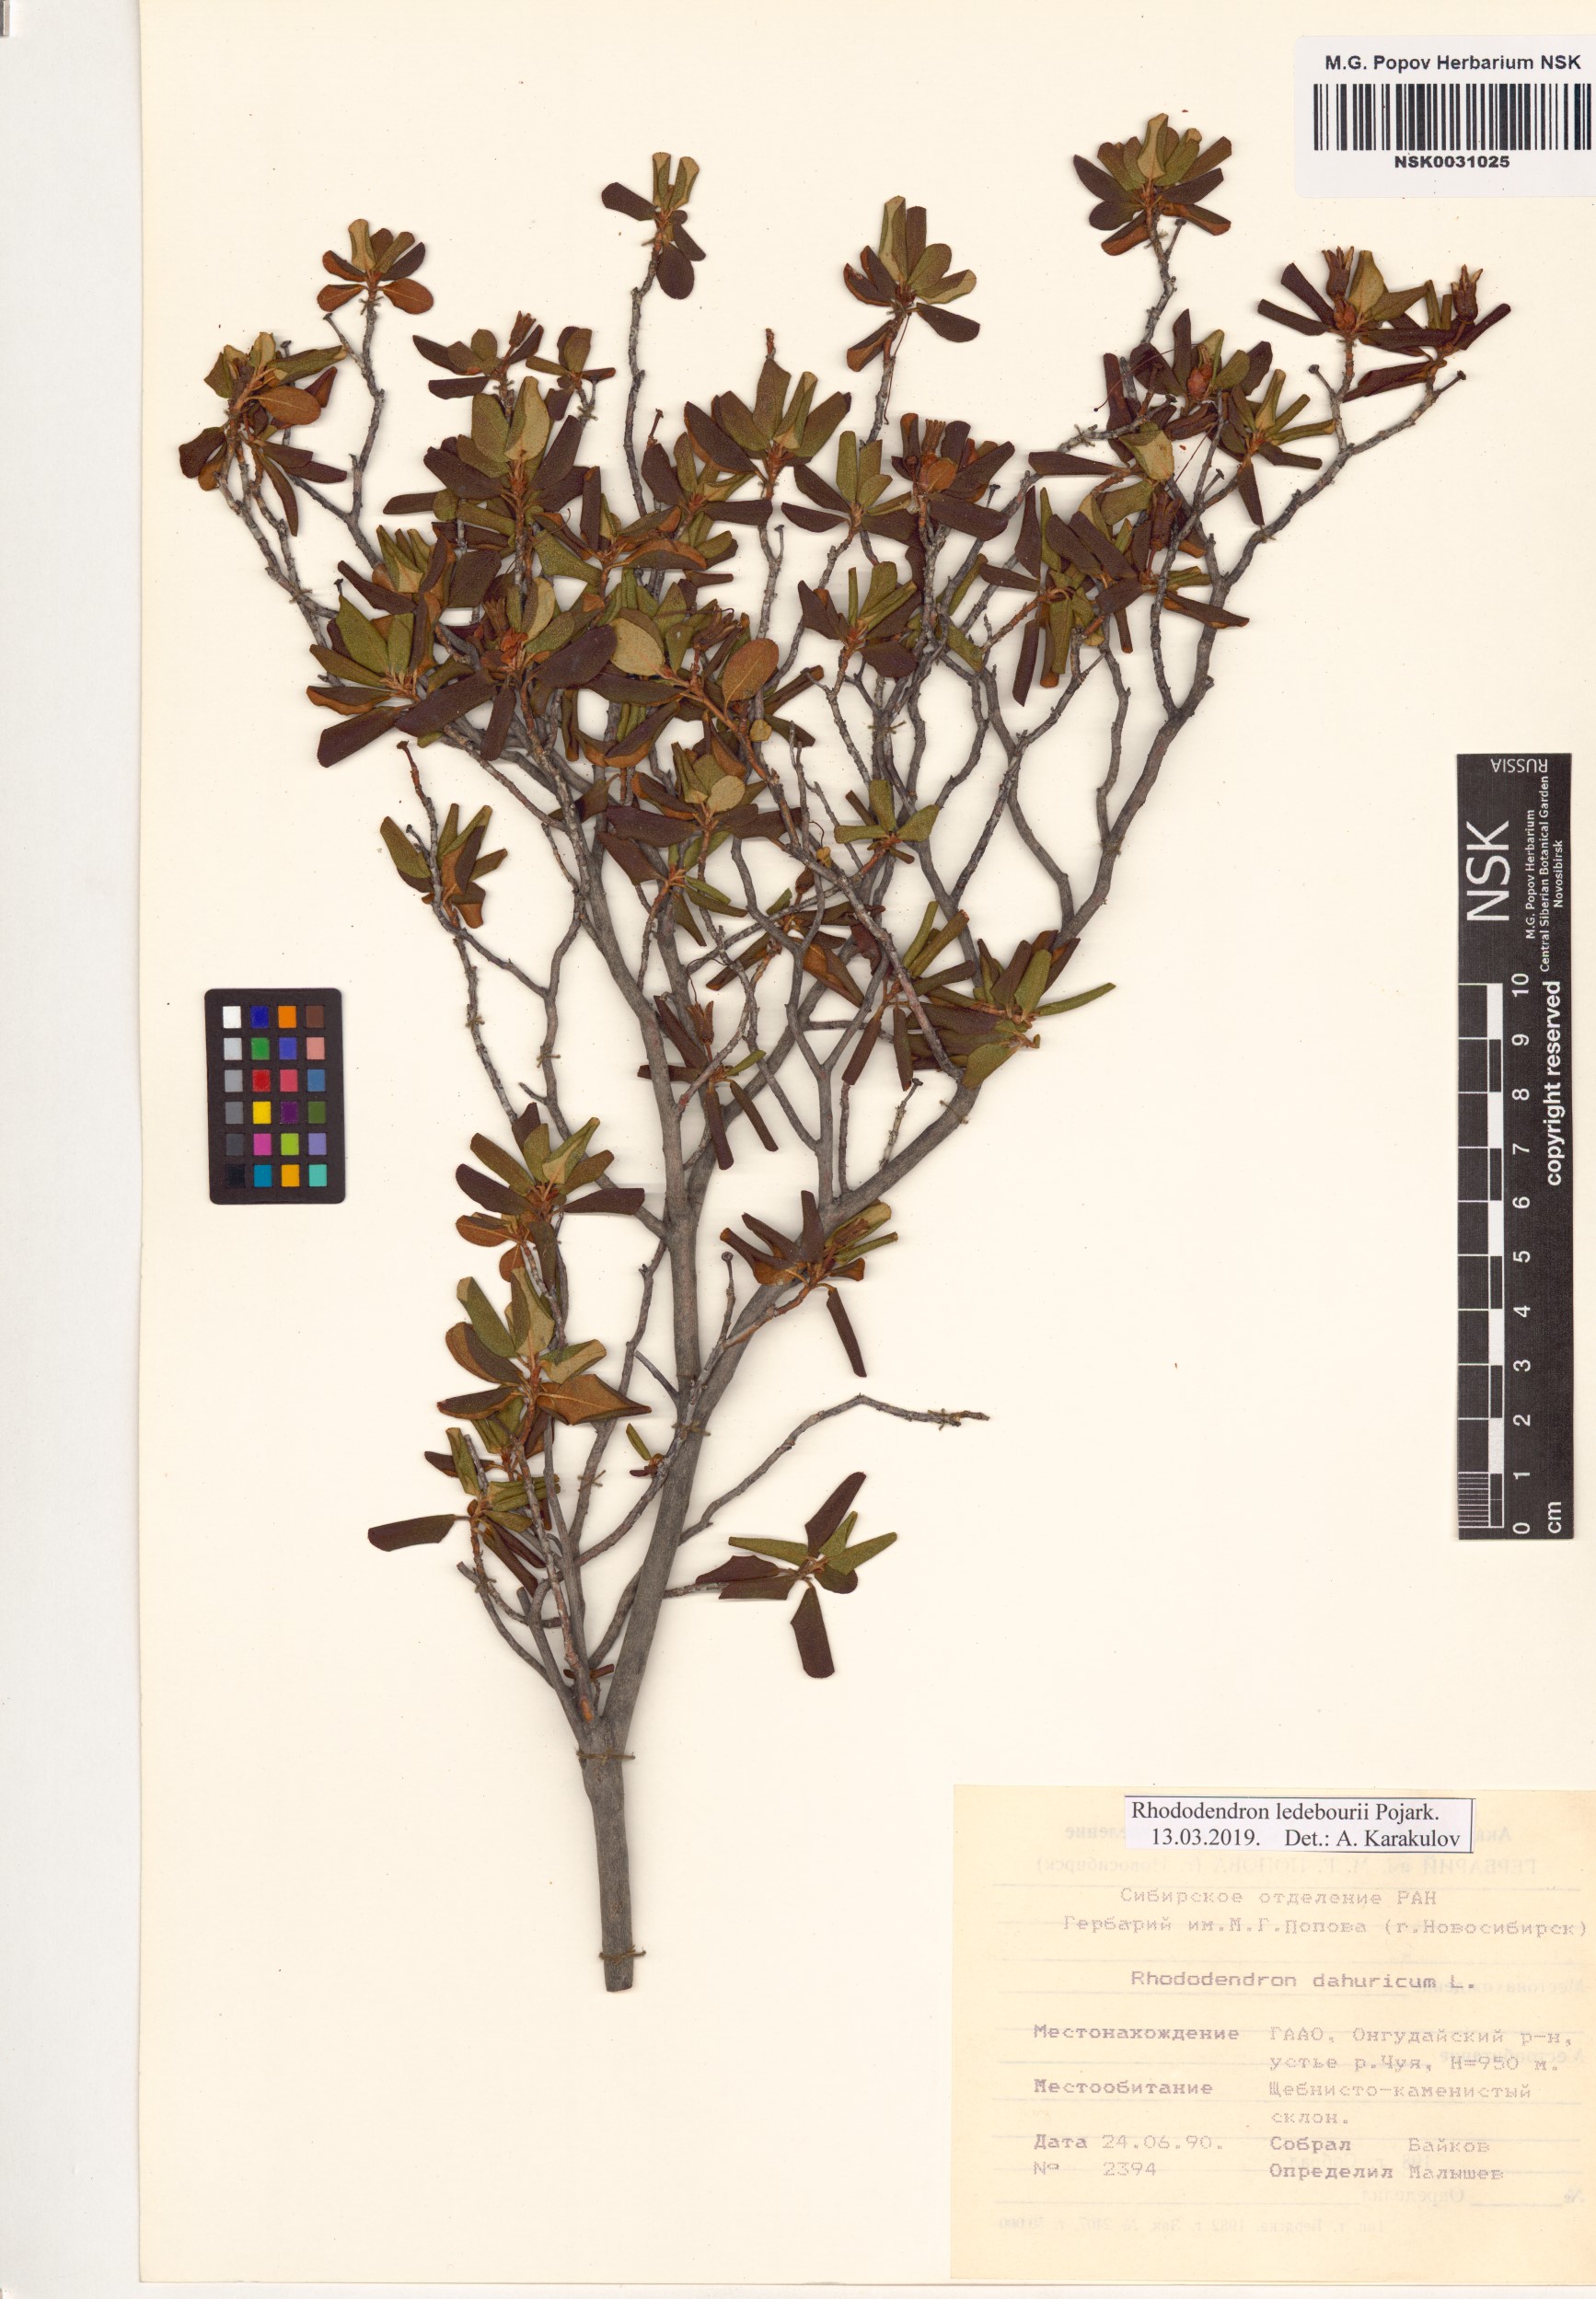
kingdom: Plantae
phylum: Tracheophyta
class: Magnoliopsida
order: Ericales
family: Ericaceae
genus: Rhododendron
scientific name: Rhododendron dauricum
